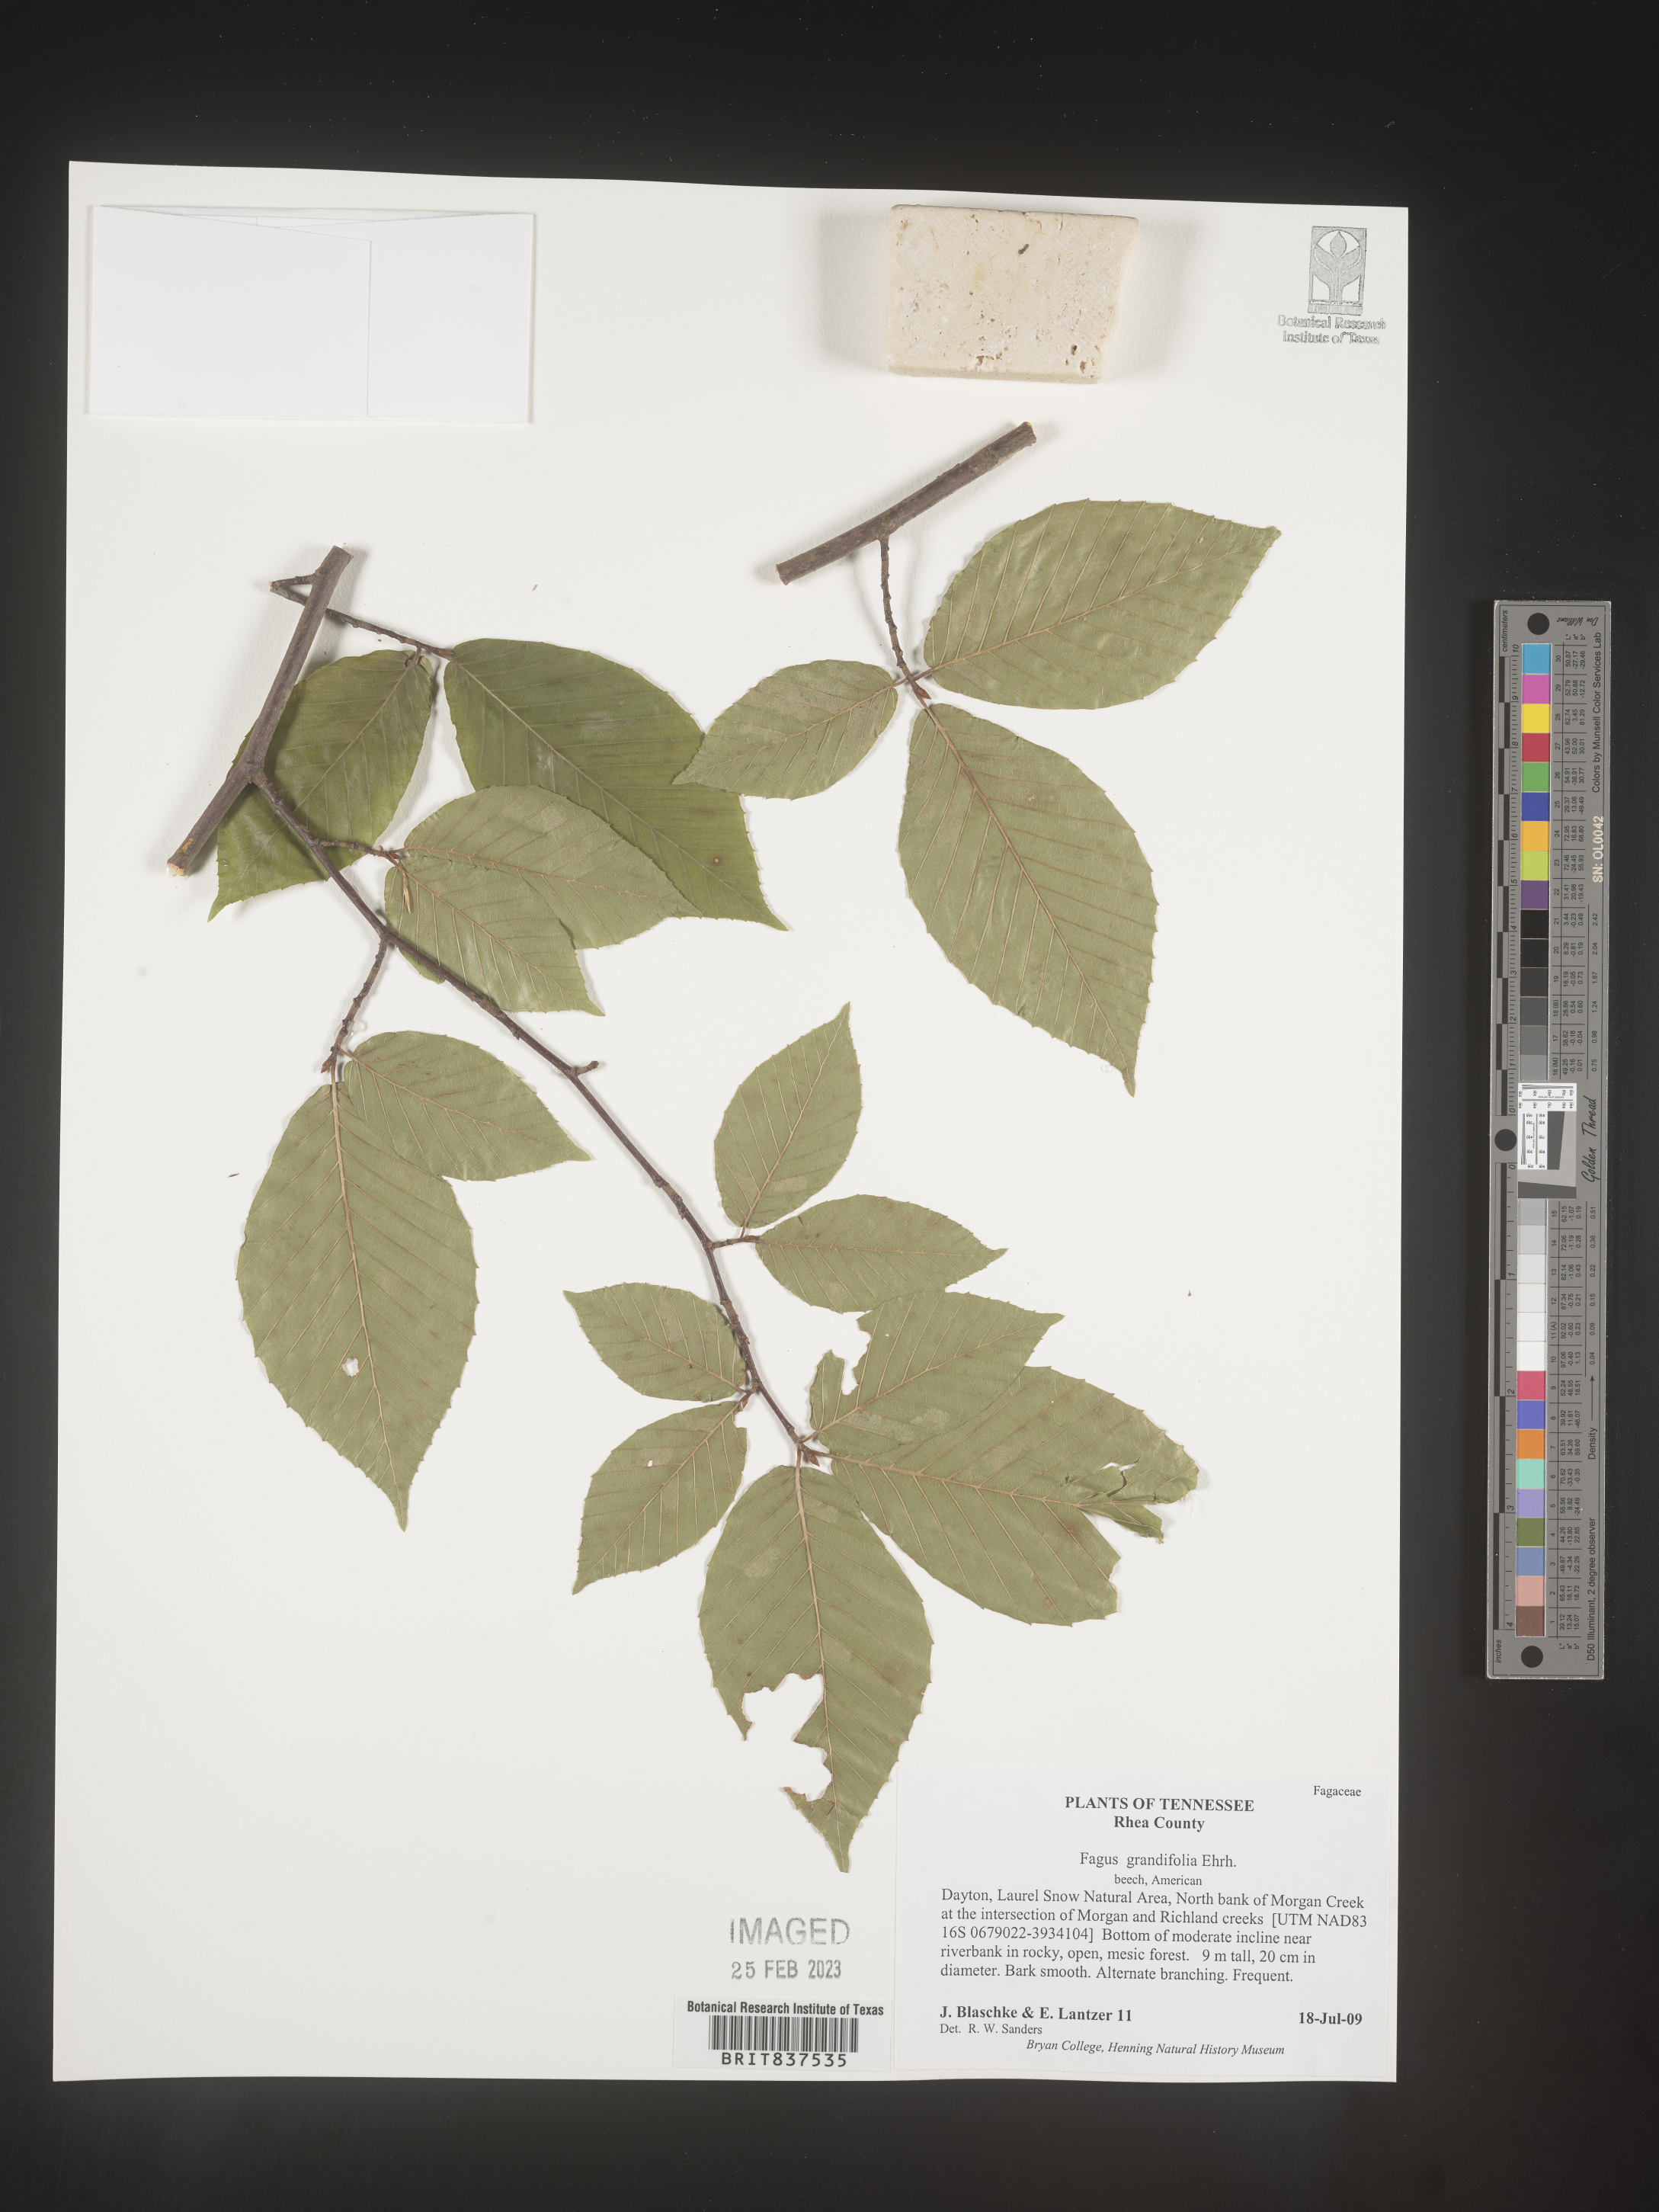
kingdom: Plantae
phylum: Tracheophyta
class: Magnoliopsida
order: Fagales
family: Fagaceae
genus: Fagus
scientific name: Fagus grandifolia
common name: American beech
